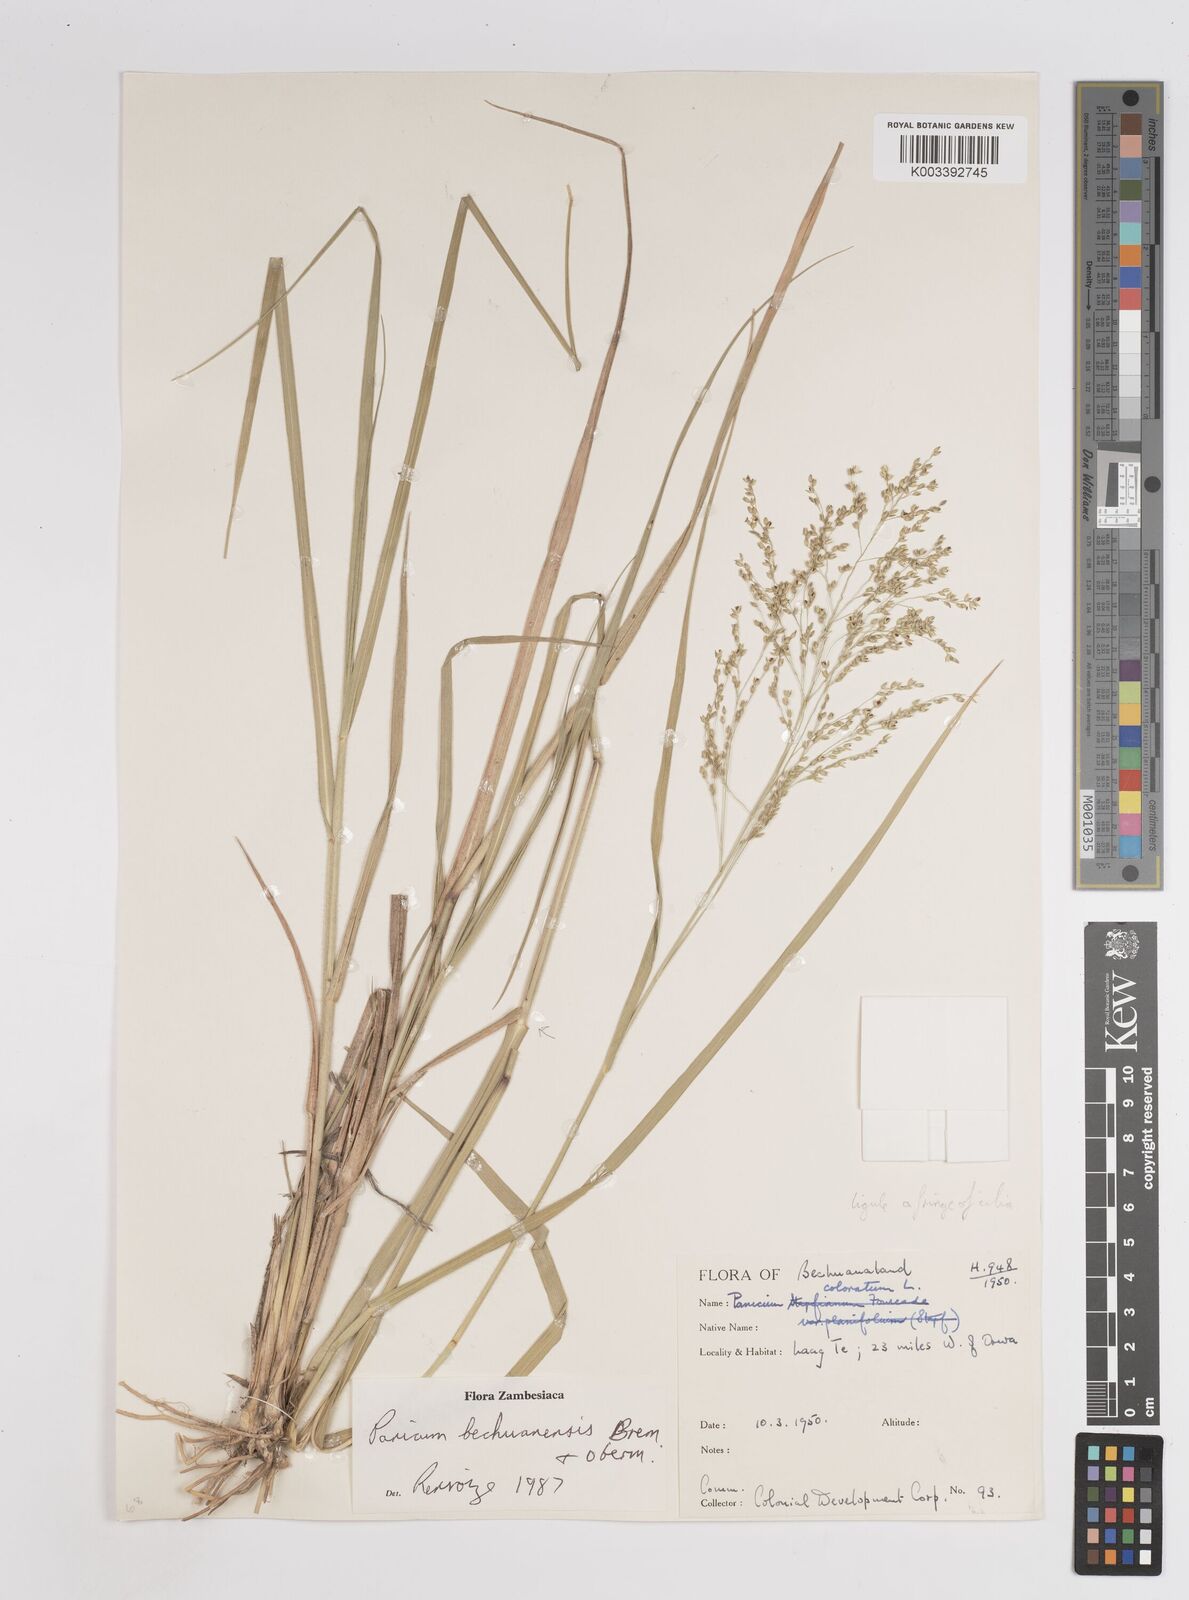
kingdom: Plantae
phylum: Tracheophyta
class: Liliopsida
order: Poales
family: Poaceae
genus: Panicum
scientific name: Panicum bechuanense
